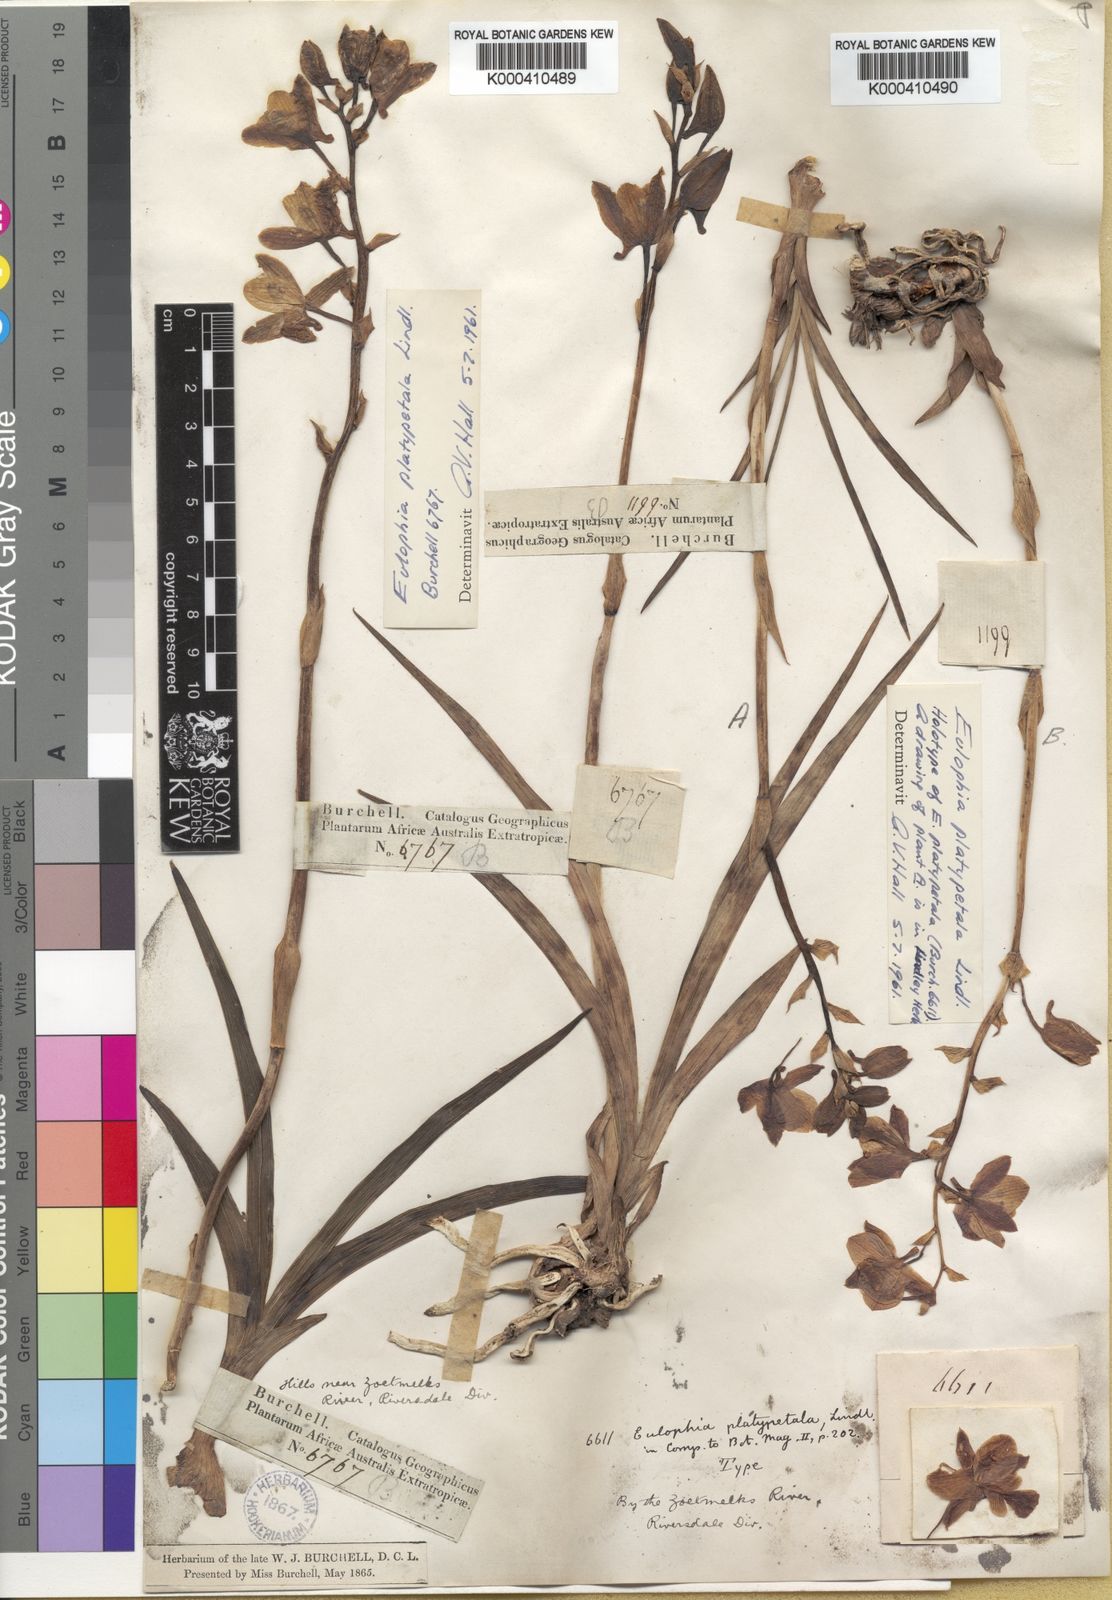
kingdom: Plantae
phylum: Tracheophyta
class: Liliopsida
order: Asparagales
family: Orchidaceae
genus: Eulophia
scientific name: Eulophia platypetala
